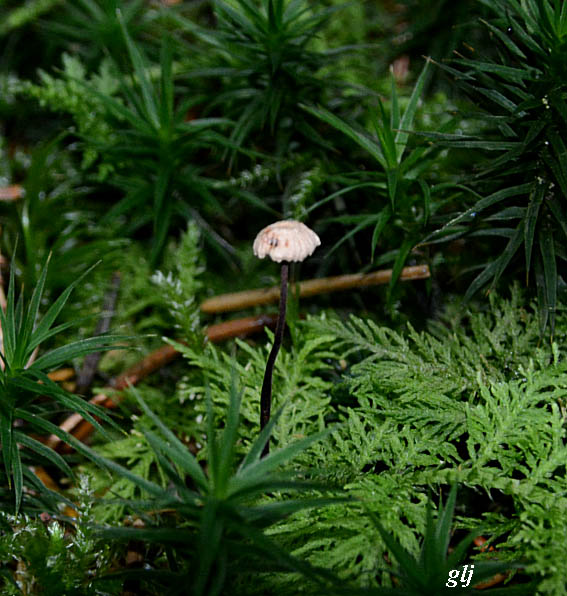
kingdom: Fungi
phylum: Basidiomycota
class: Agaricomycetes
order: Agaricales
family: Omphalotaceae
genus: Paragymnopus
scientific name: Paragymnopus perforans
